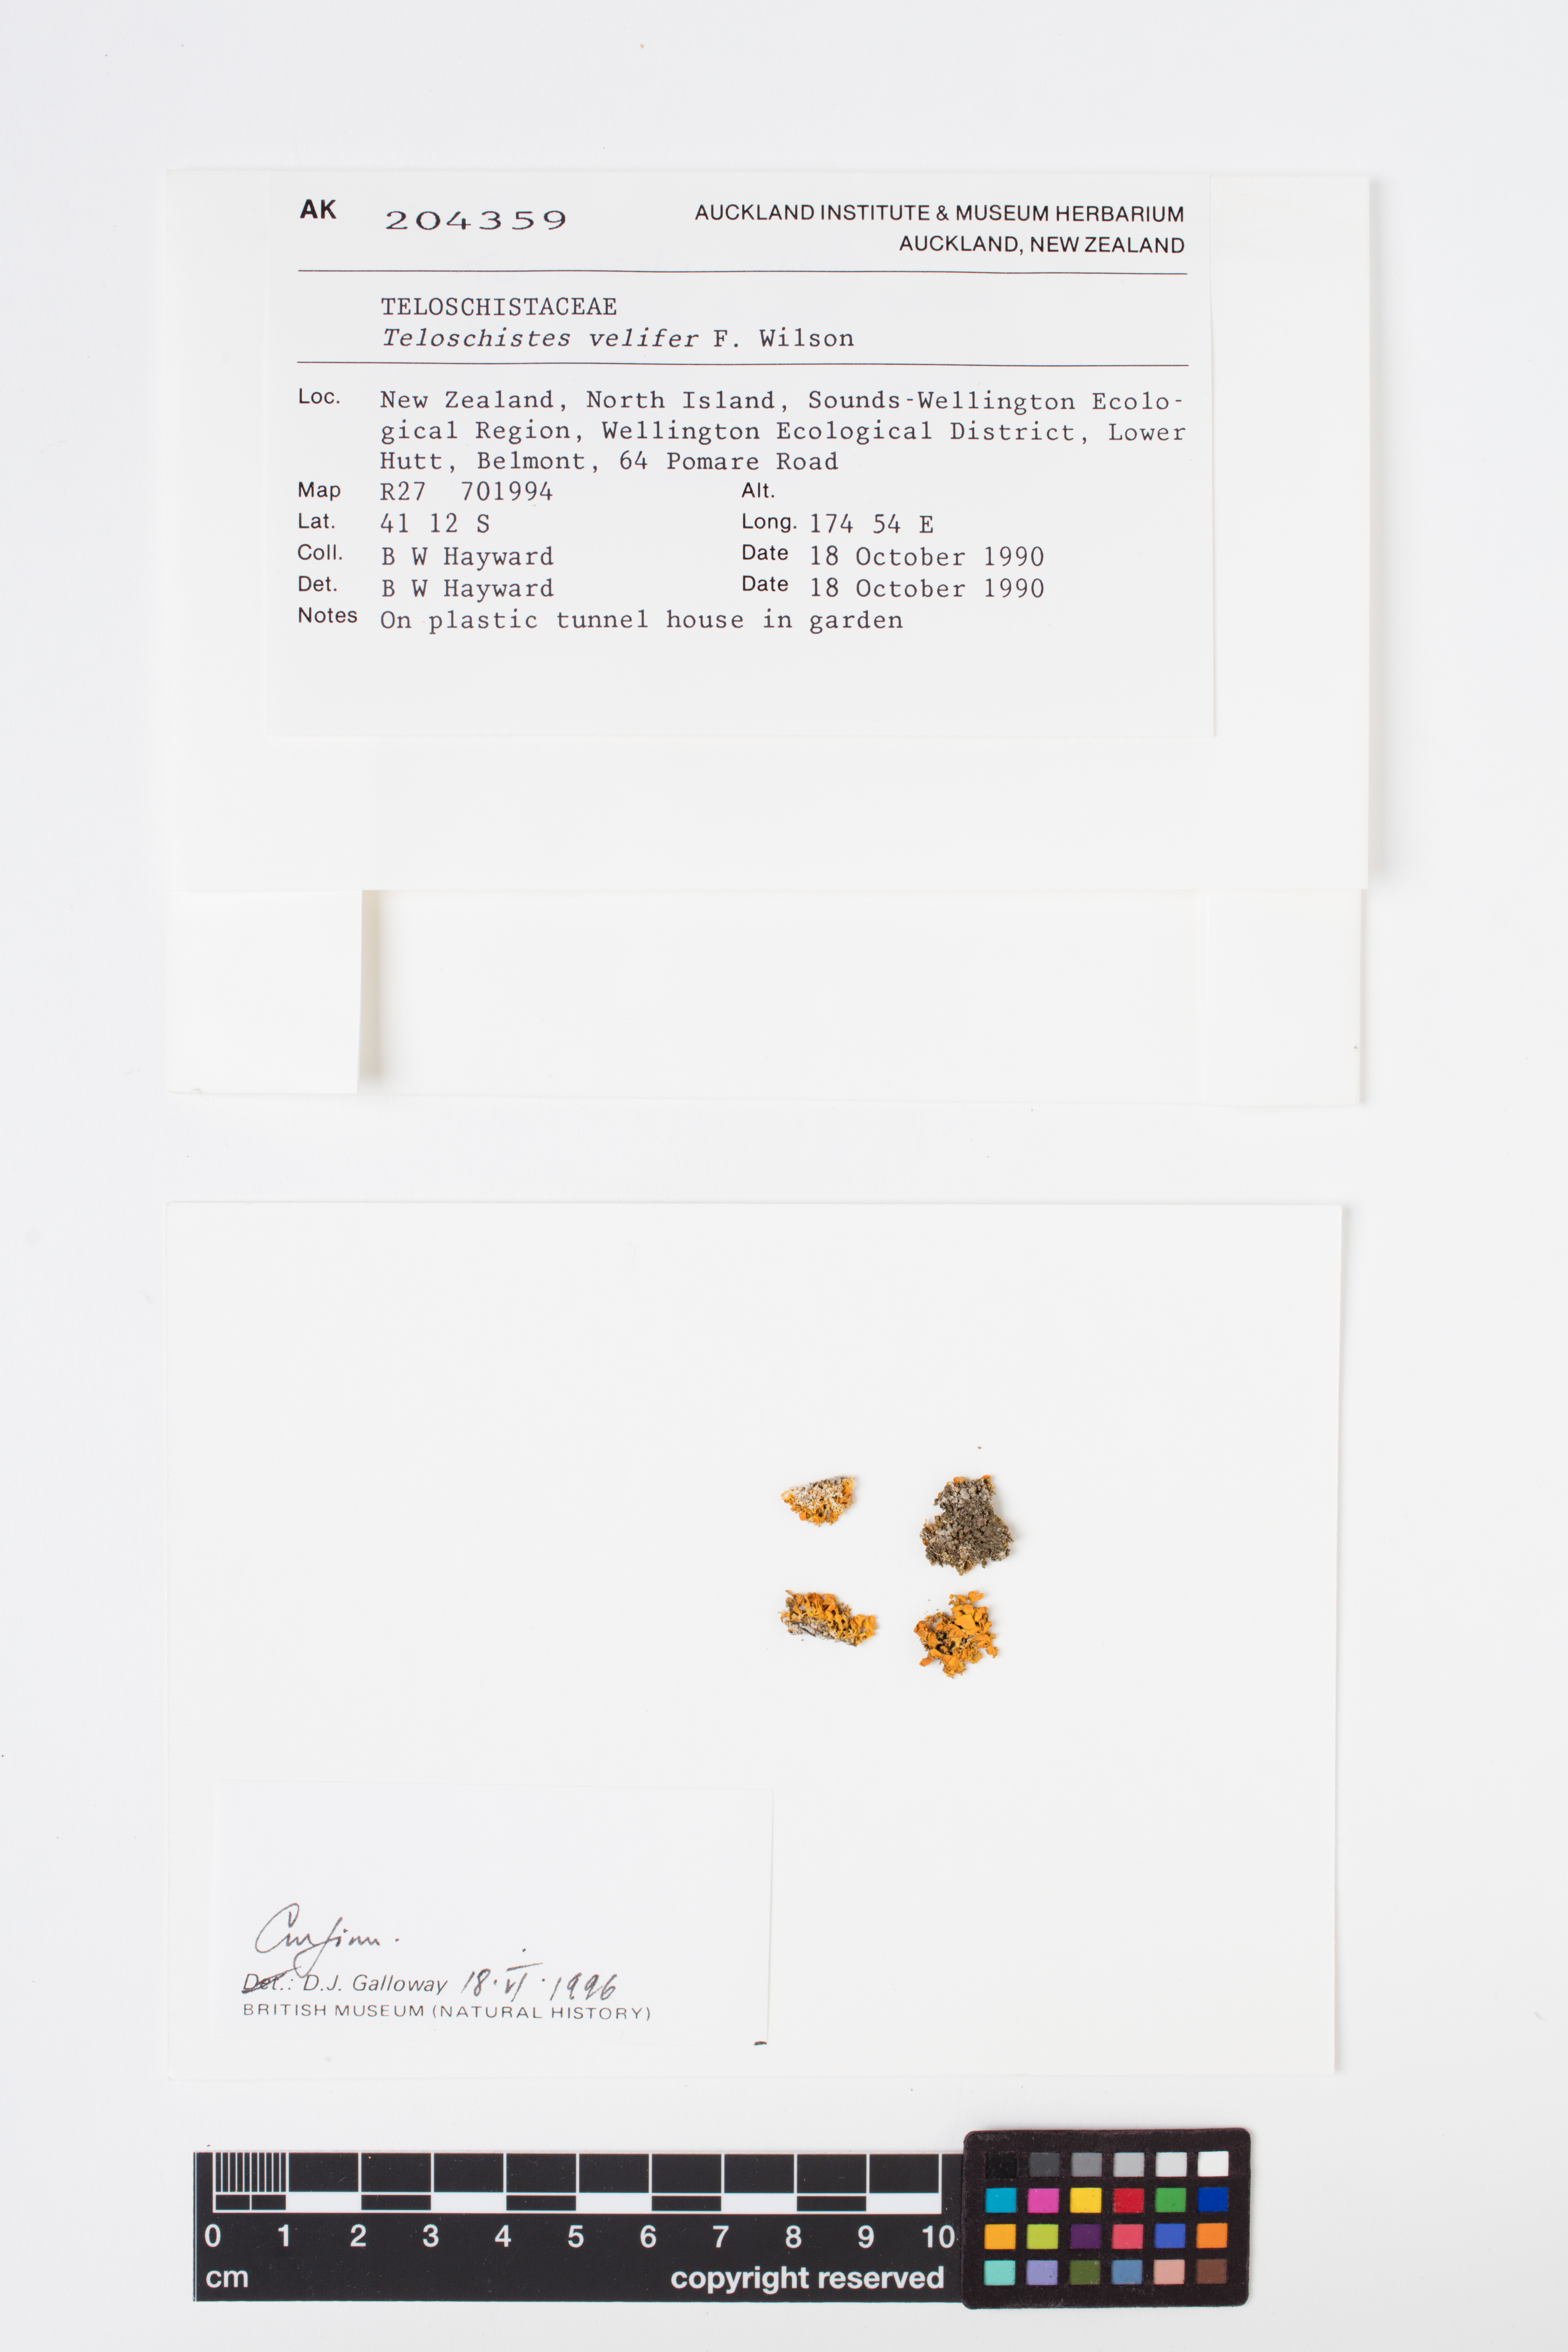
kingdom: Fungi
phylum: Ascomycota
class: Lecanoromycetes
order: Teloschistales
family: Teloschistaceae
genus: Teloschistes
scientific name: Teloschistes velifer
